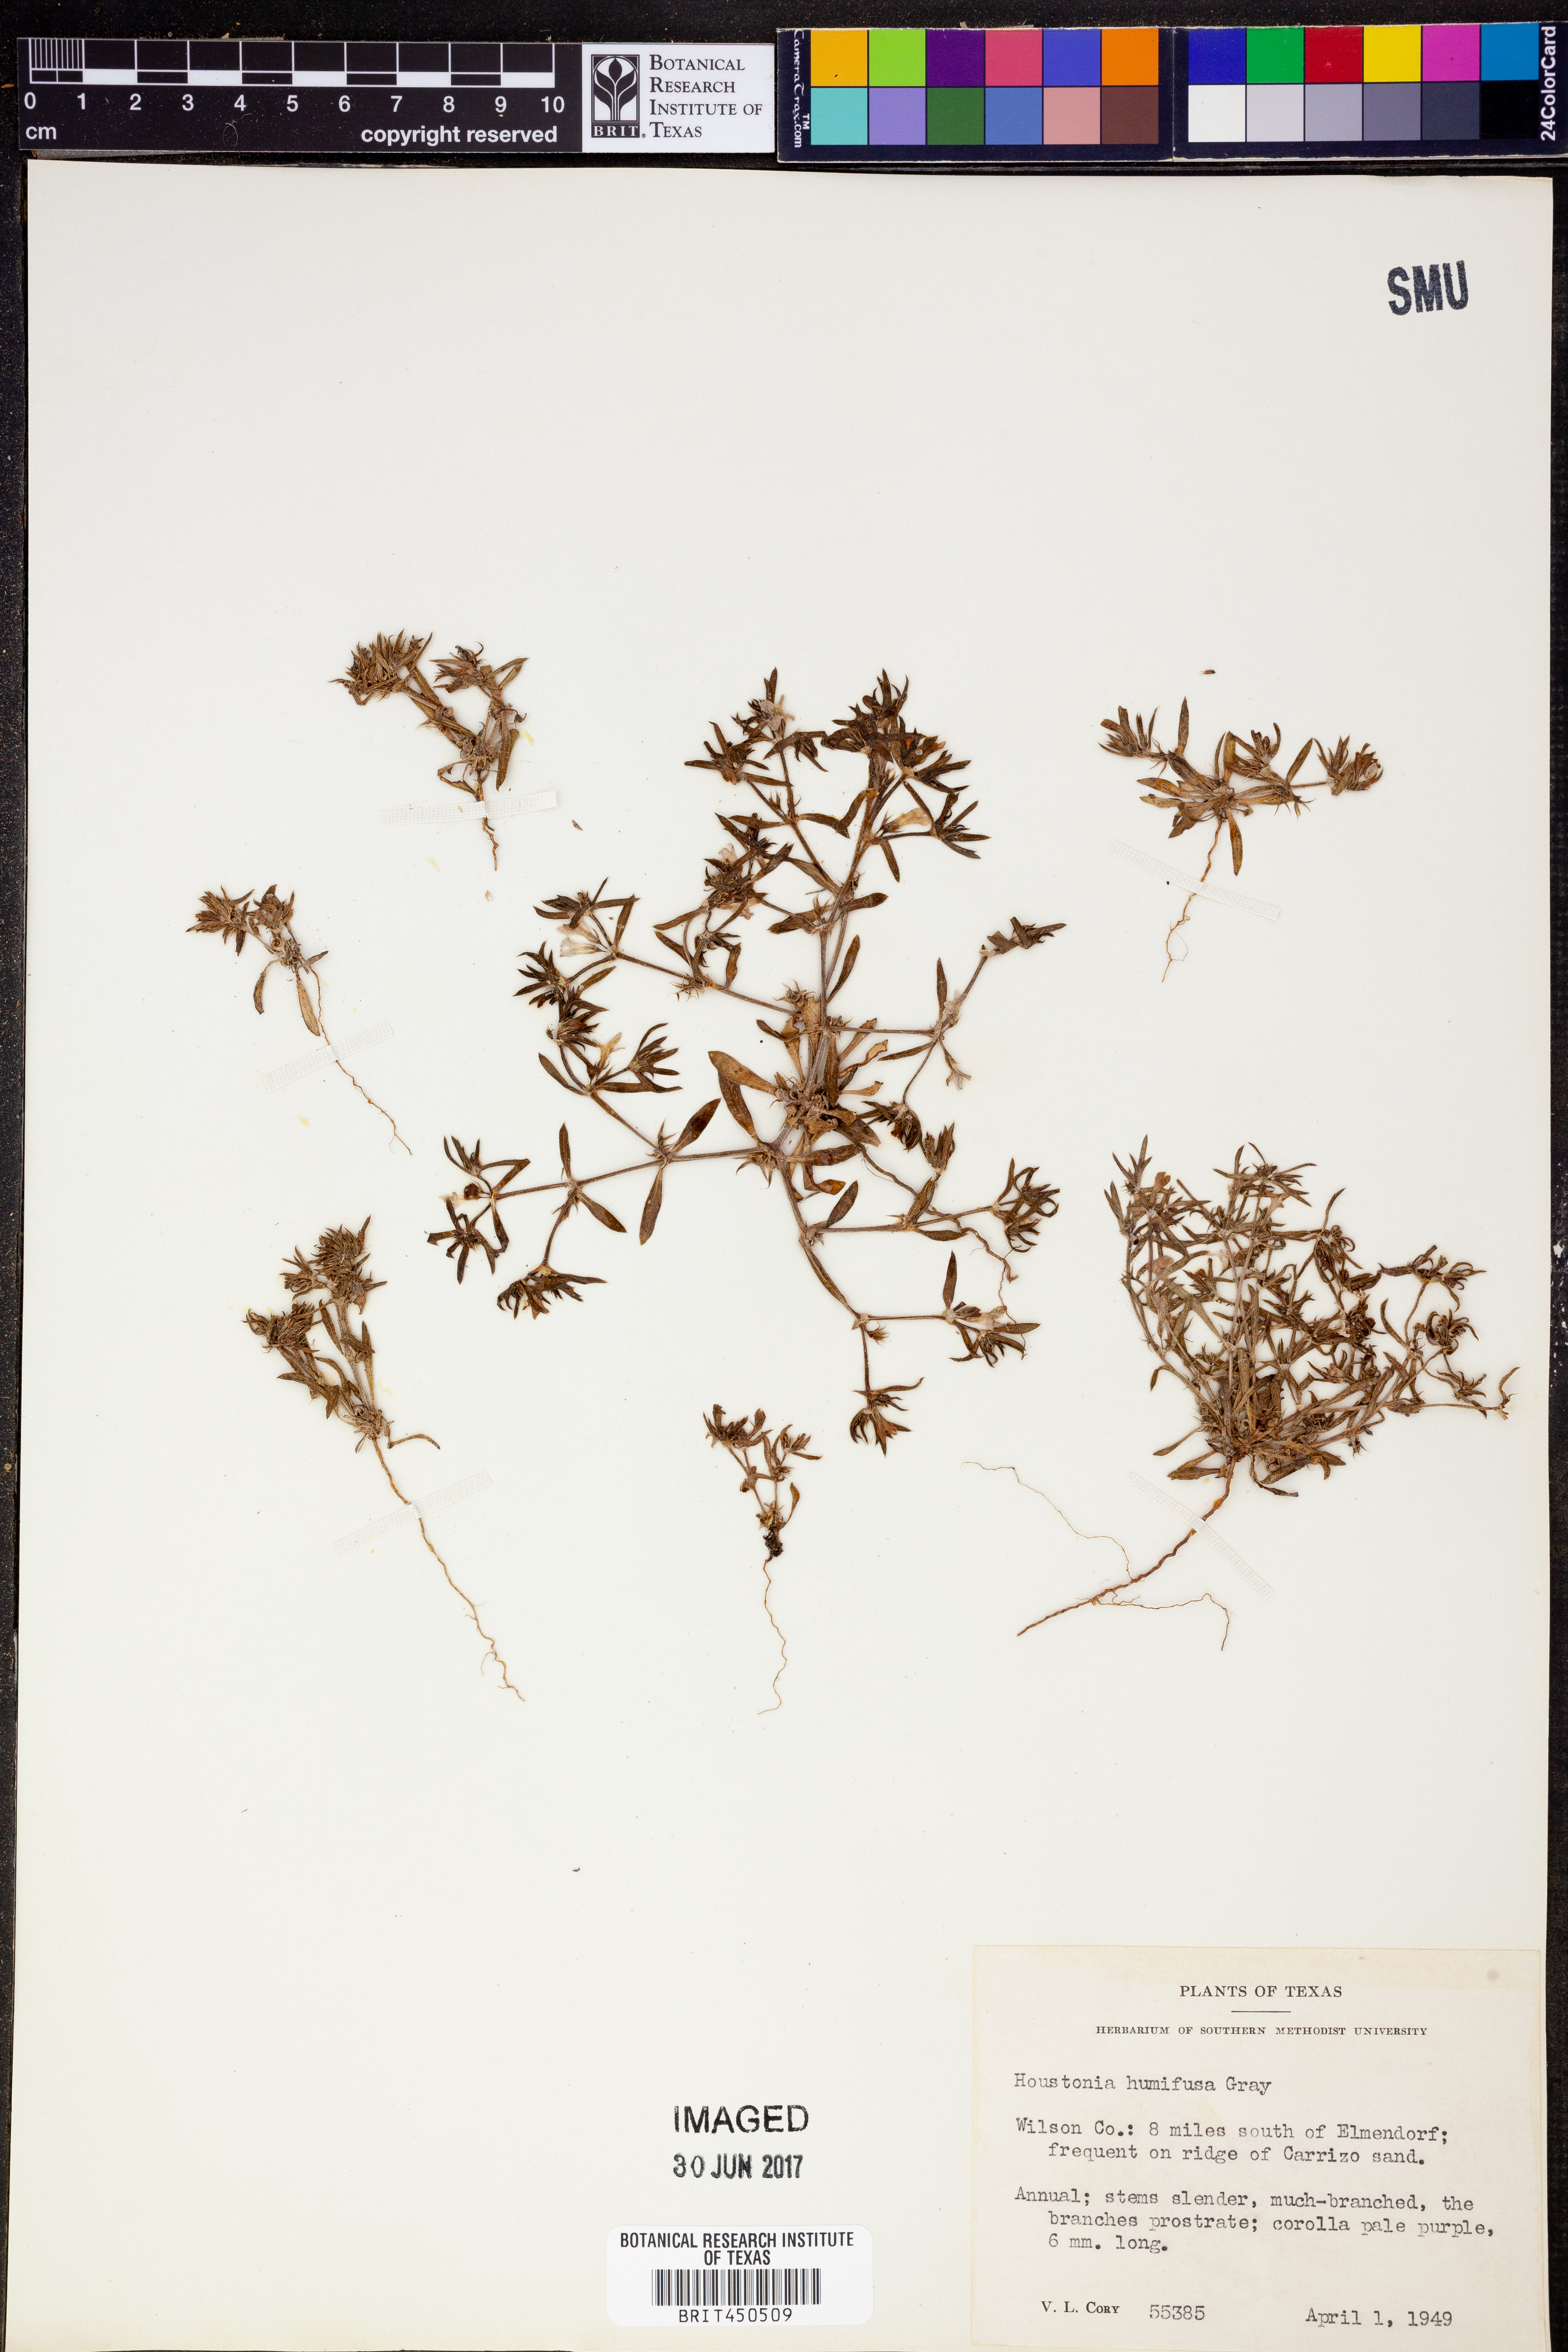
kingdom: Plantae
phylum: Tracheophyta
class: Magnoliopsida
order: Gentianales
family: Rubiaceae
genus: Houstonia
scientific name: Houstonia humifusa
